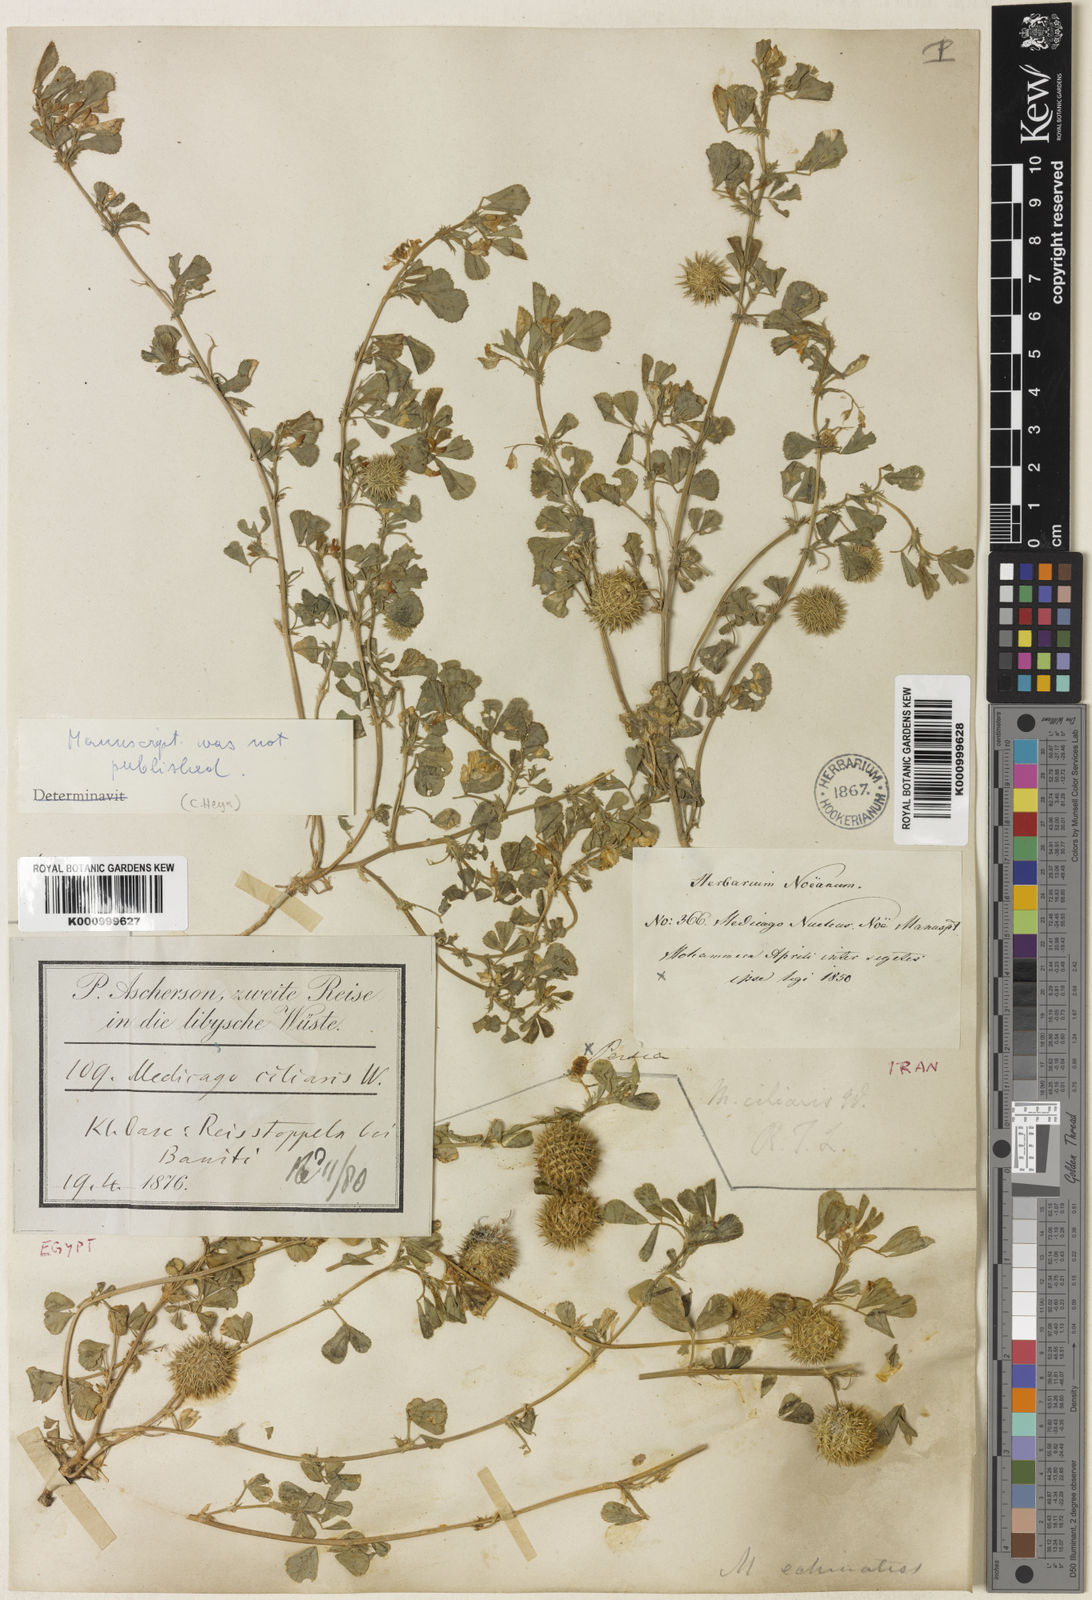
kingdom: Plantae
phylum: Tracheophyta
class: Magnoliopsida
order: Fabales
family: Fabaceae
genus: Medicago
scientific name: Medicago
